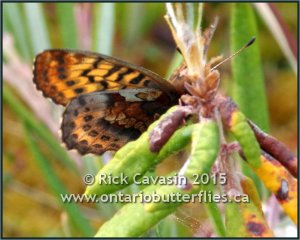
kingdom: Animalia
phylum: Arthropoda
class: Insecta
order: Lepidoptera
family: Nymphalidae
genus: Boloria
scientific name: Boloria frigga
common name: Frigga Fritillary
